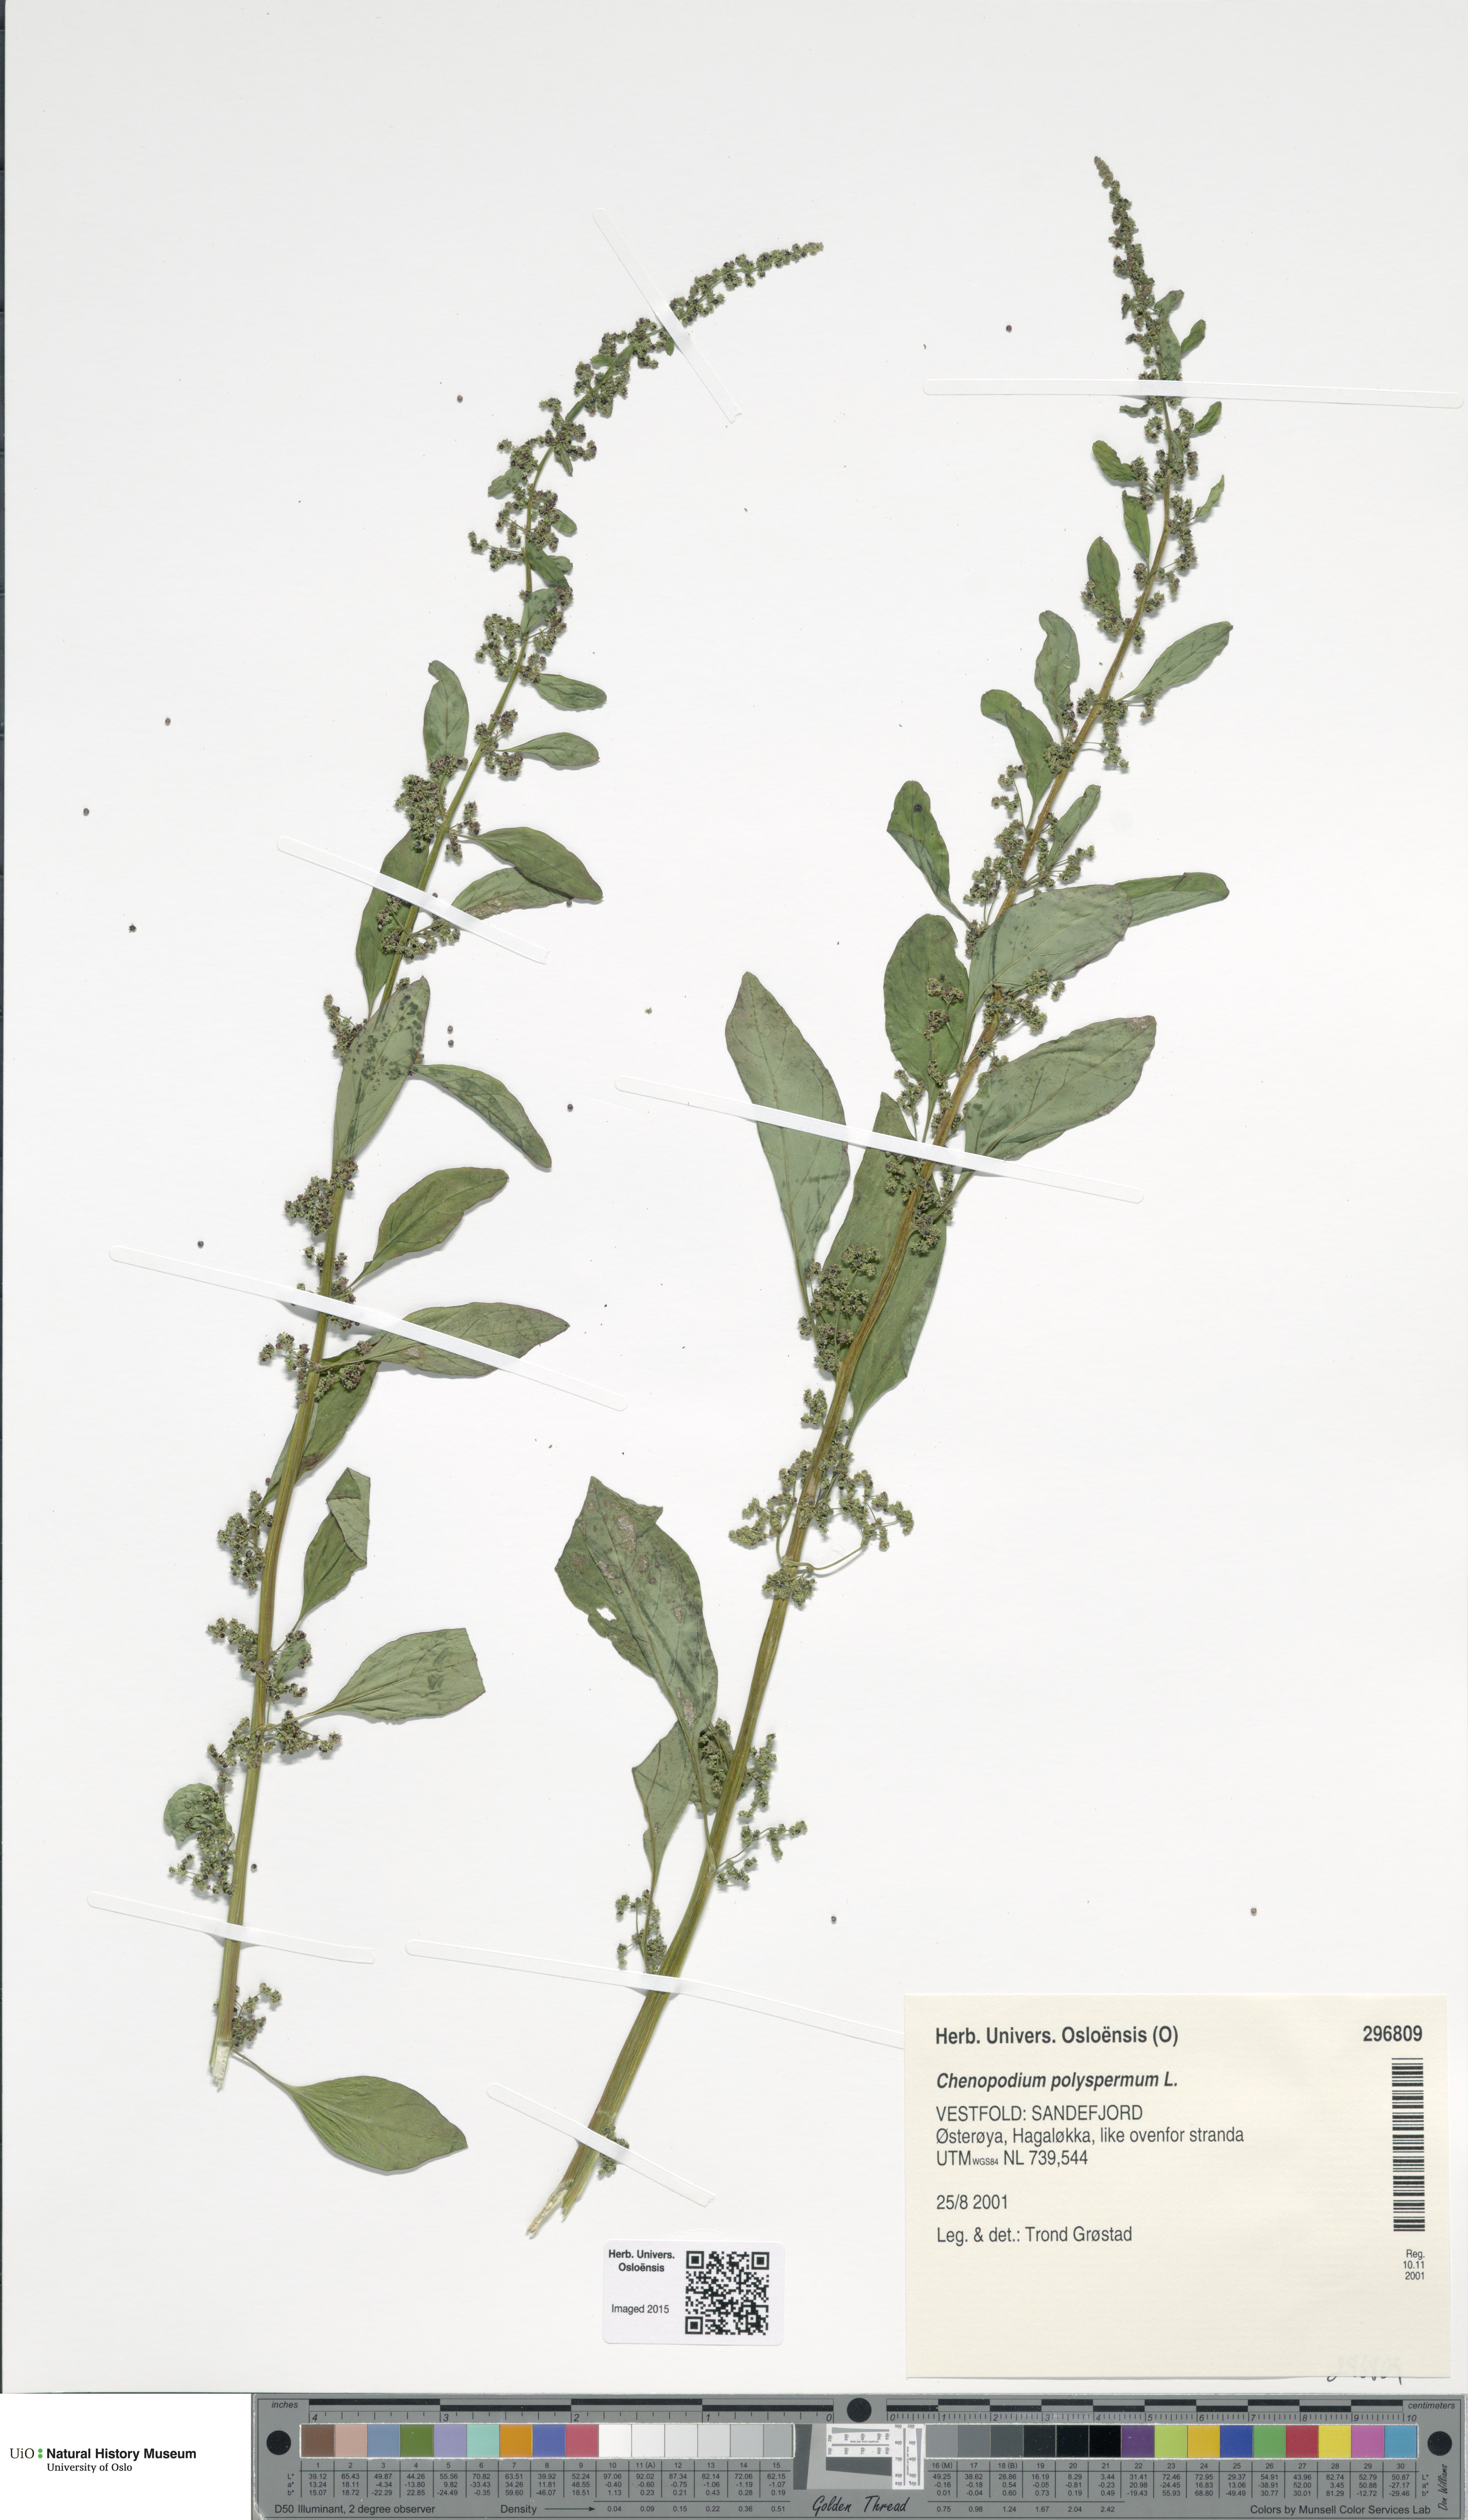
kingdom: Plantae
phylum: Tracheophyta
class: Magnoliopsida
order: Caryophyllales
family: Amaranthaceae
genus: Lipandra
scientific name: Lipandra polysperma
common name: Many-seed goosefoot
